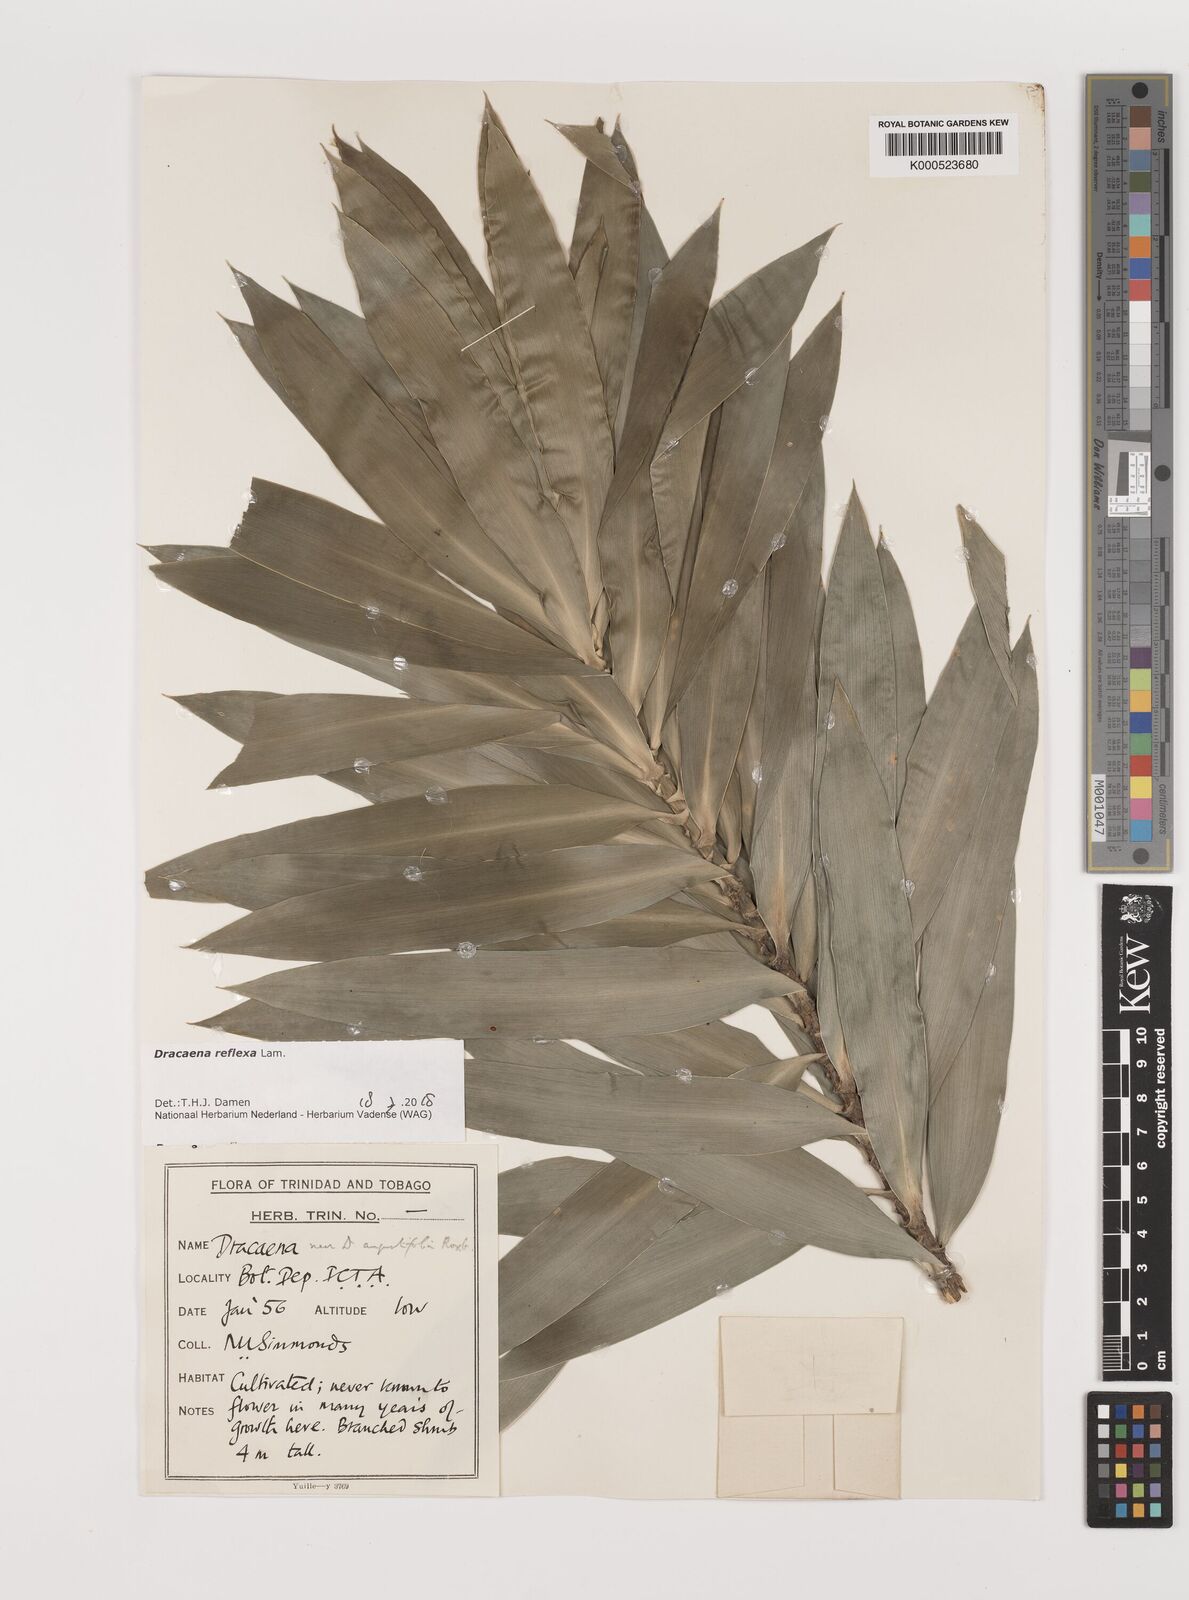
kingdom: Plantae
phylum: Tracheophyta
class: Liliopsida
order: Asparagales
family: Asparagaceae
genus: Dracaena
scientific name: Dracaena reflexa
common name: Song-of-india
